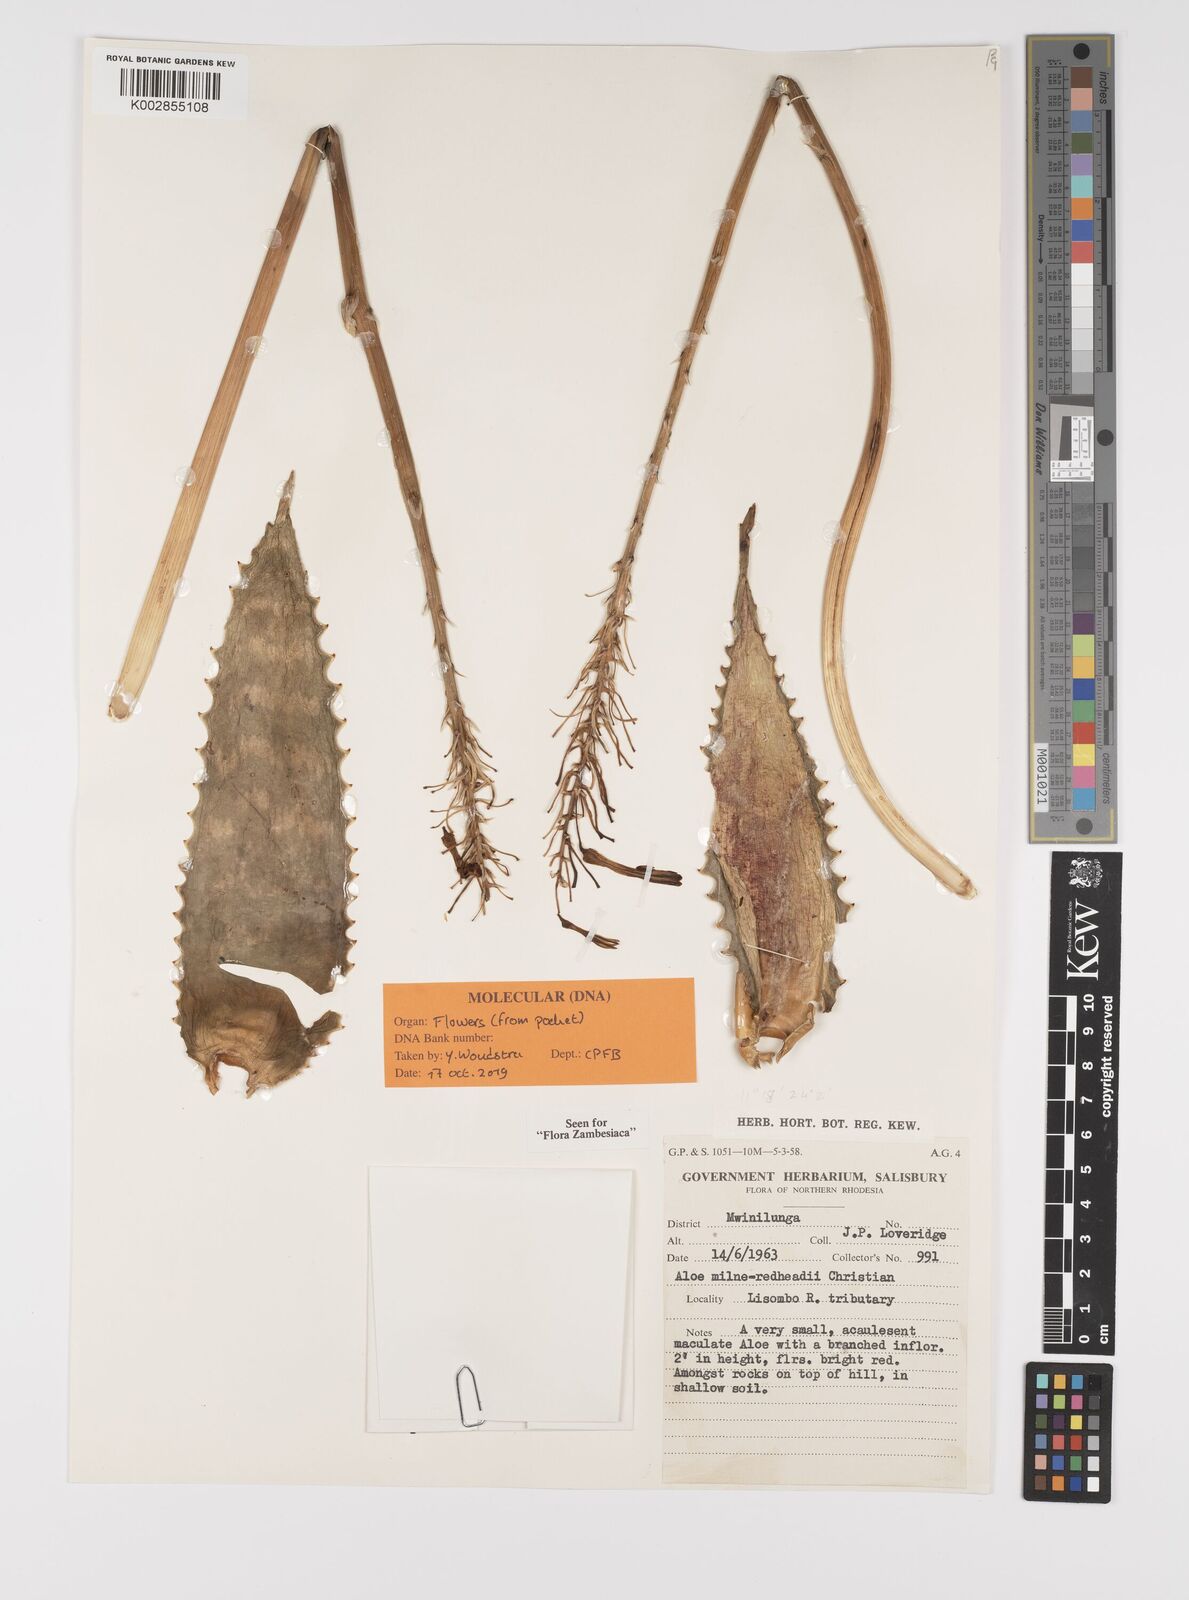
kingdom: Plantae
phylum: Tracheophyta
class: Liliopsida
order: Asparagales
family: Asphodelaceae
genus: Aloe
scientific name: Aloe milne-redheadii
